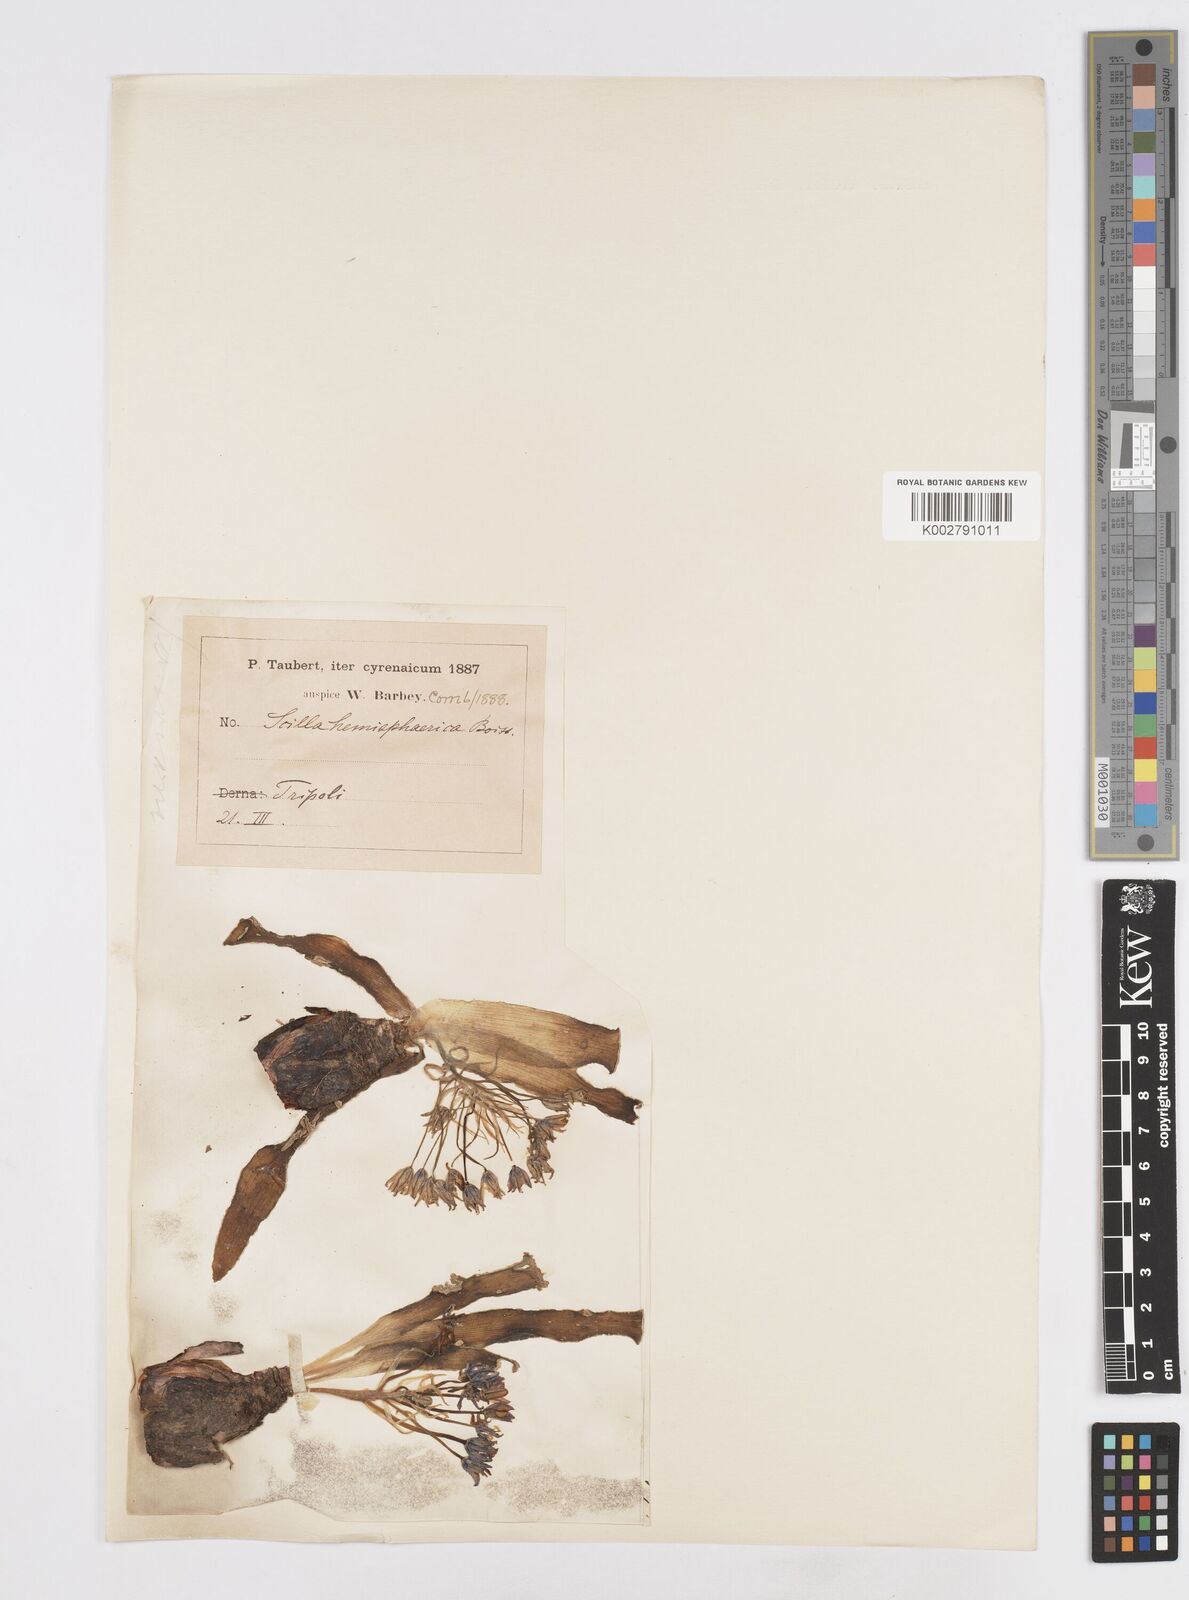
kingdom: Plantae
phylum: Tracheophyta
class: Liliopsida
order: Asparagales
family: Asparagaceae
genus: Scilla
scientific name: Scilla peruviana
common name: Portuguese squill
